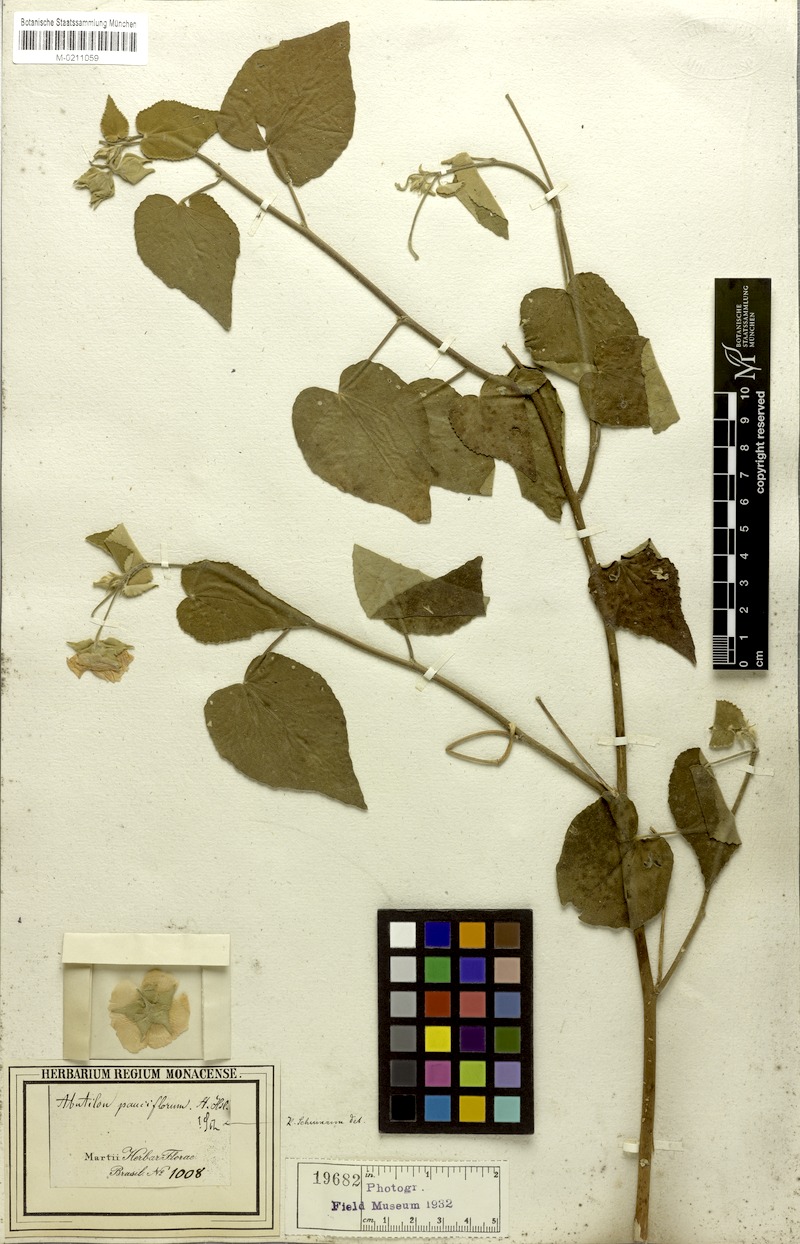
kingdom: Plantae
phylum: Tracheophyta
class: Magnoliopsida
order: Malvales
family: Malvaceae
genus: Callianthe
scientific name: Callianthe pauciflora
